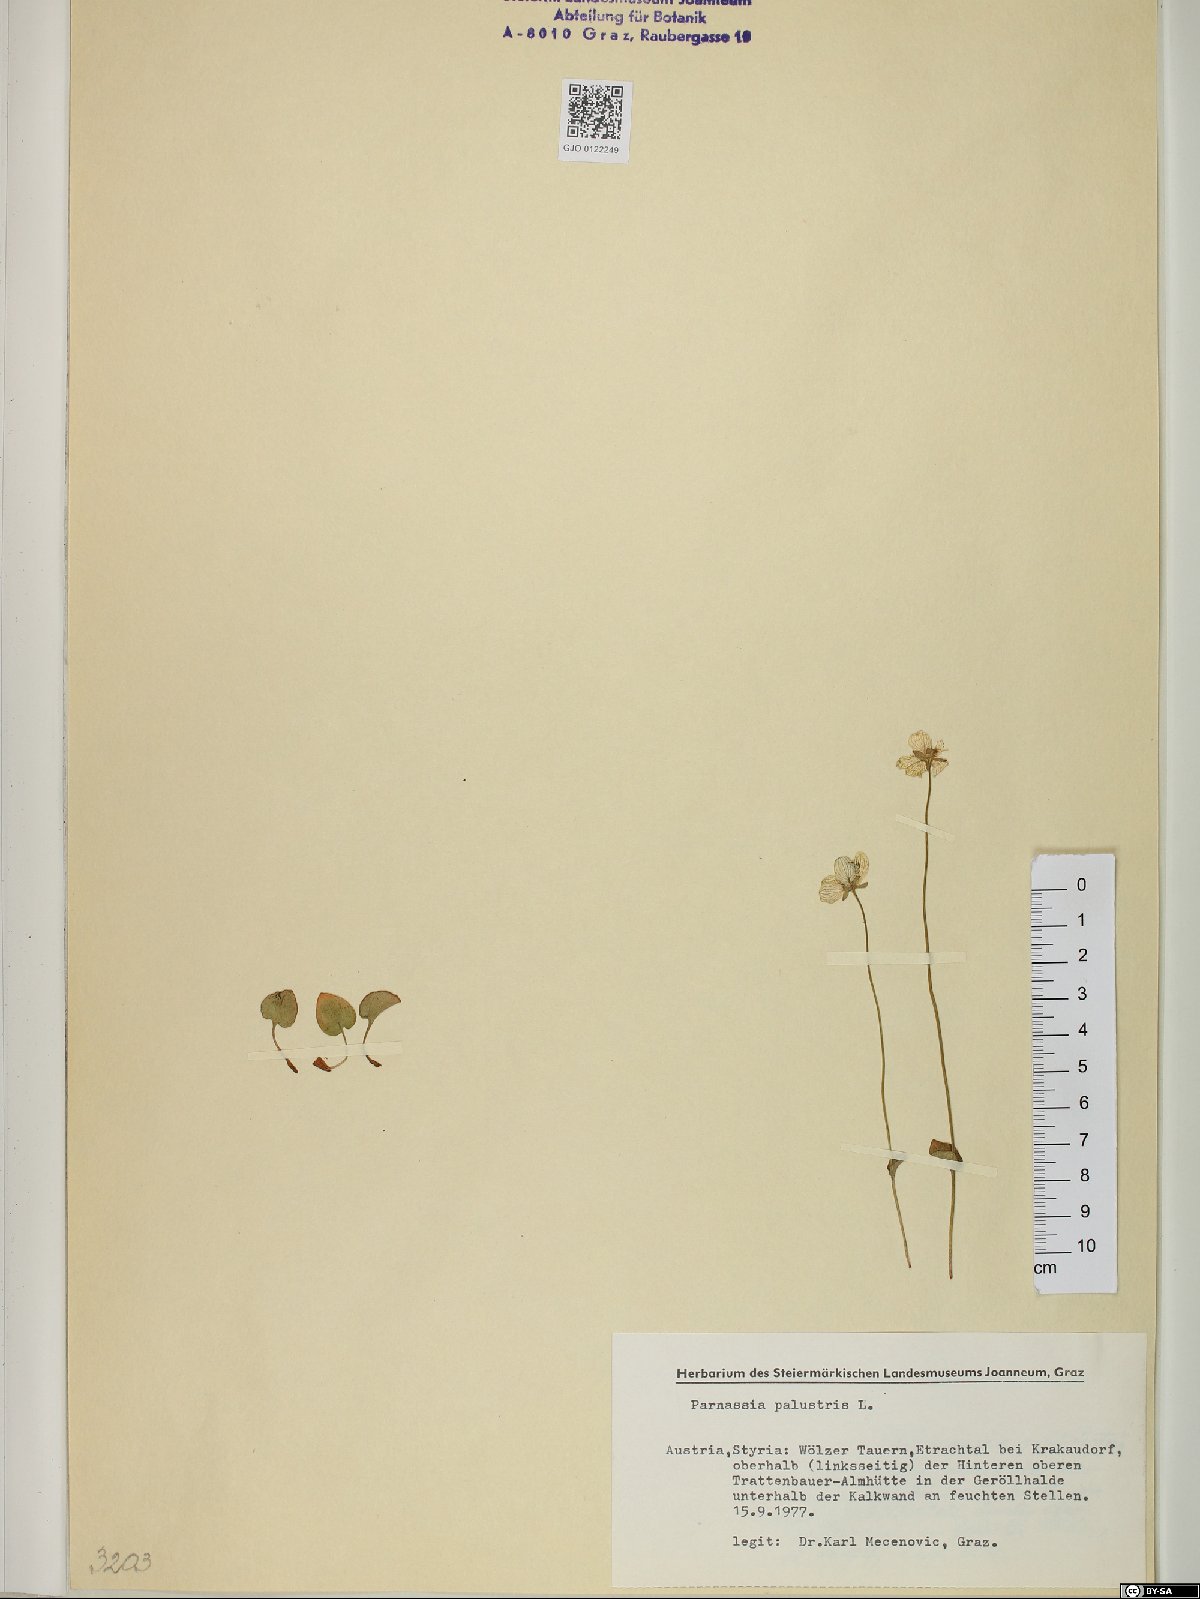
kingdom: Plantae
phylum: Tracheophyta
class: Magnoliopsida
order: Celastrales
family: Parnassiaceae
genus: Parnassia
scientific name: Parnassia palustris
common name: Grass-of-parnassus
